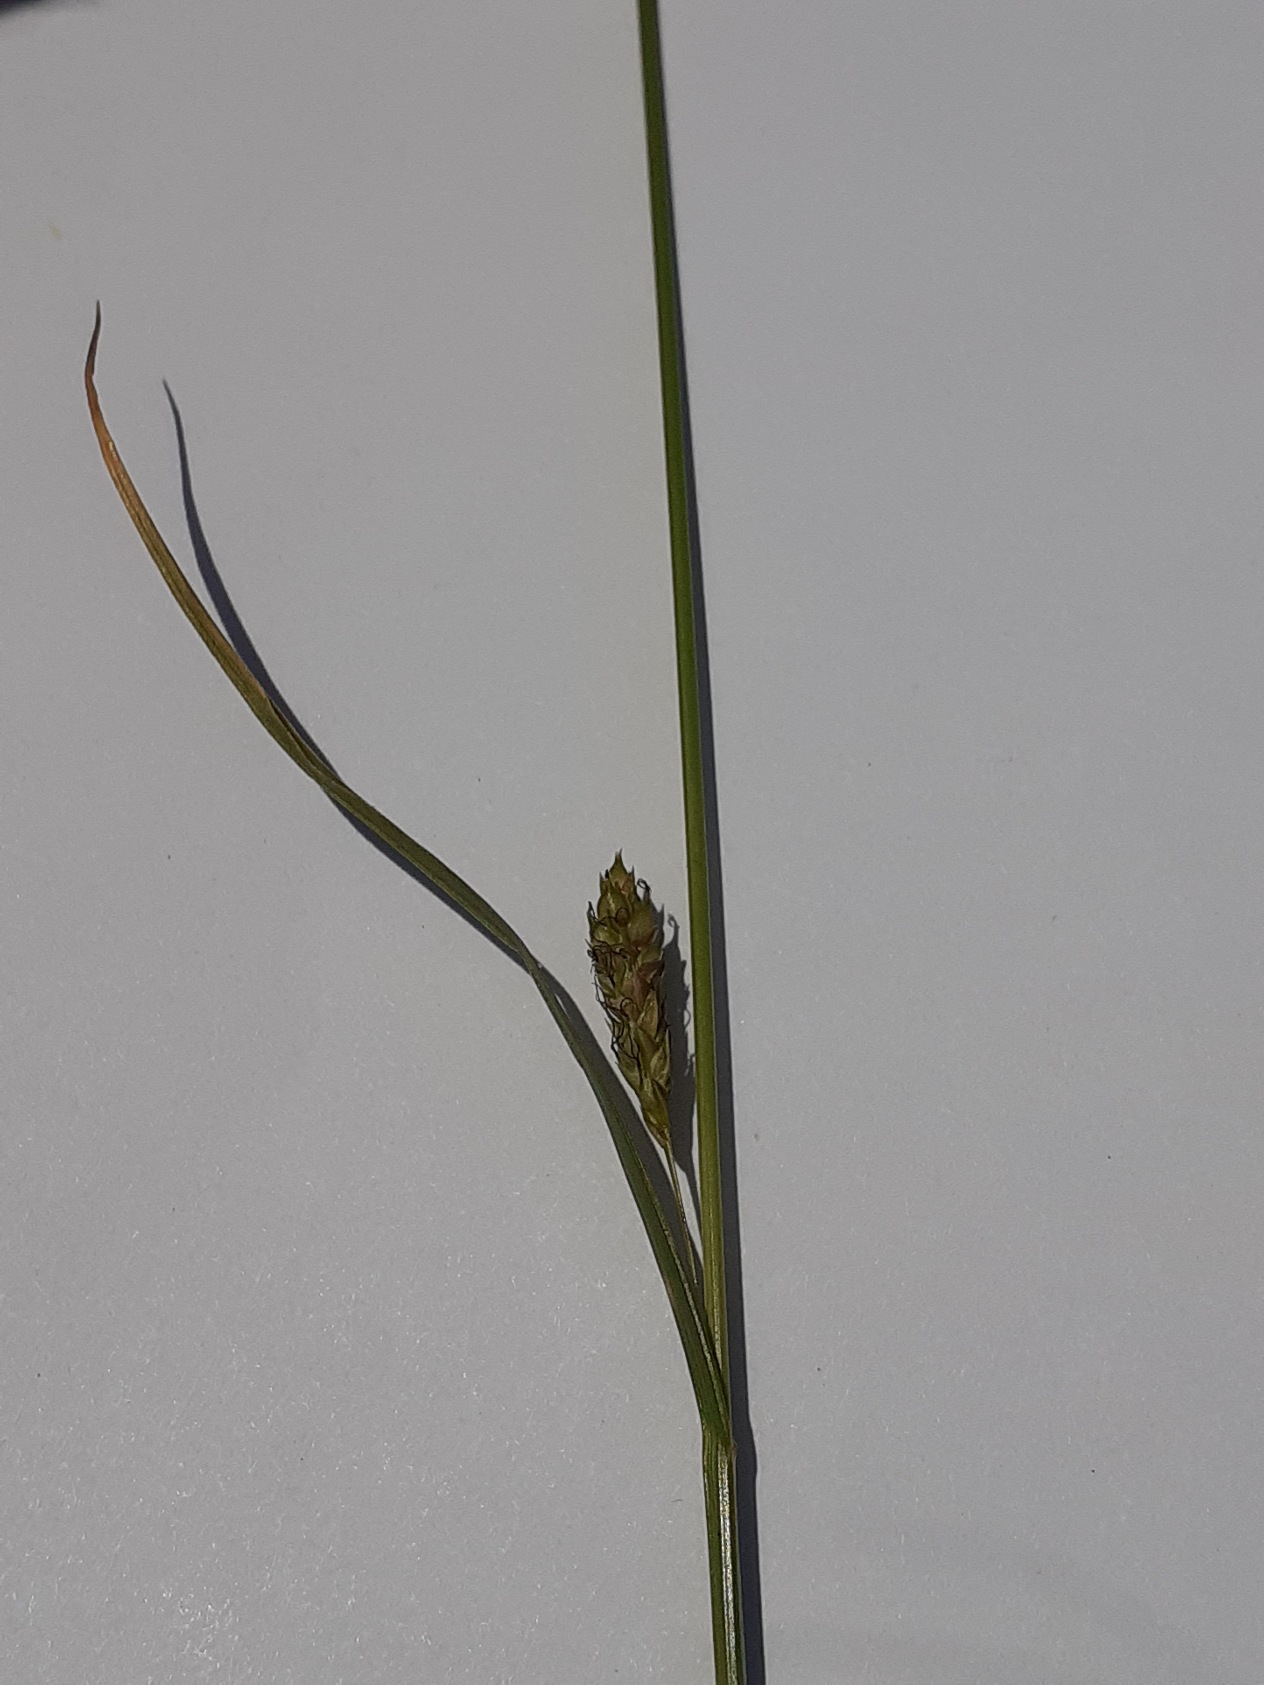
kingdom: Plantae
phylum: Tracheophyta
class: Liliopsida
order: Poales
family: Cyperaceae
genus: Carex
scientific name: Carex distans
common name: Fjernakset star
